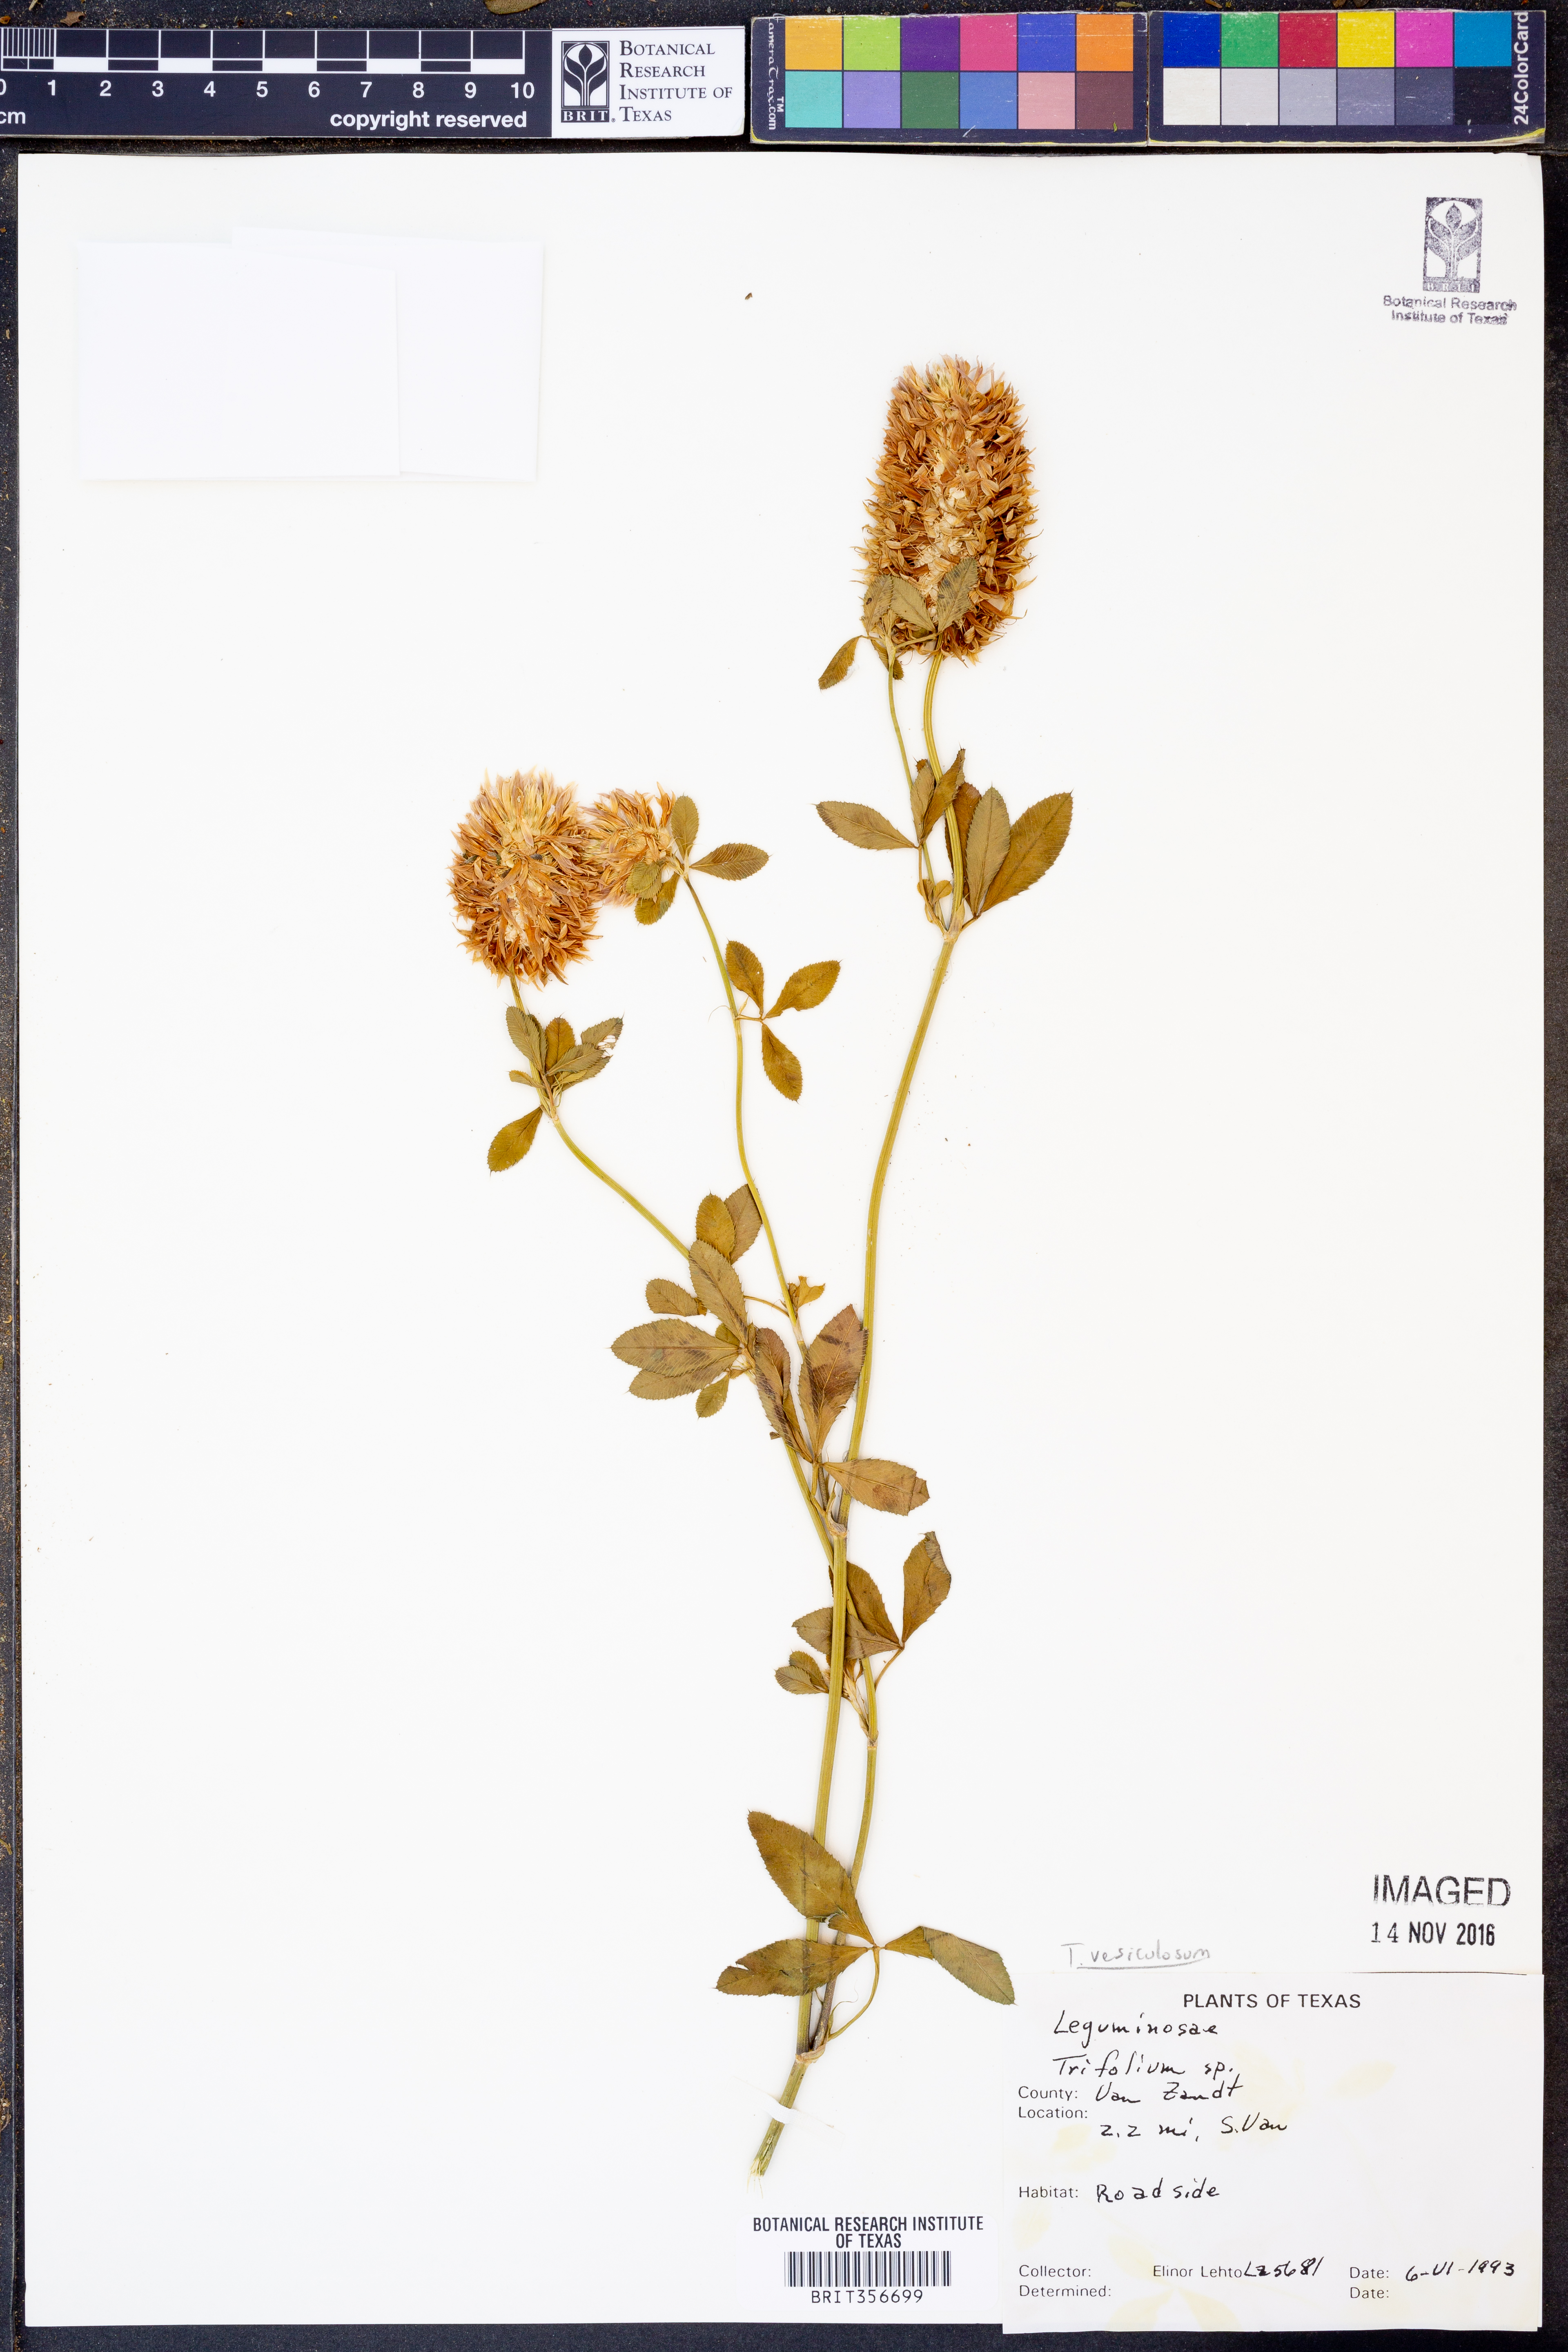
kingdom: Plantae
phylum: Tracheophyta
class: Magnoliopsida
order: Fabales
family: Fabaceae
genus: Trifolium
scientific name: Trifolium vesiculosum
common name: Arrowleaf clover
